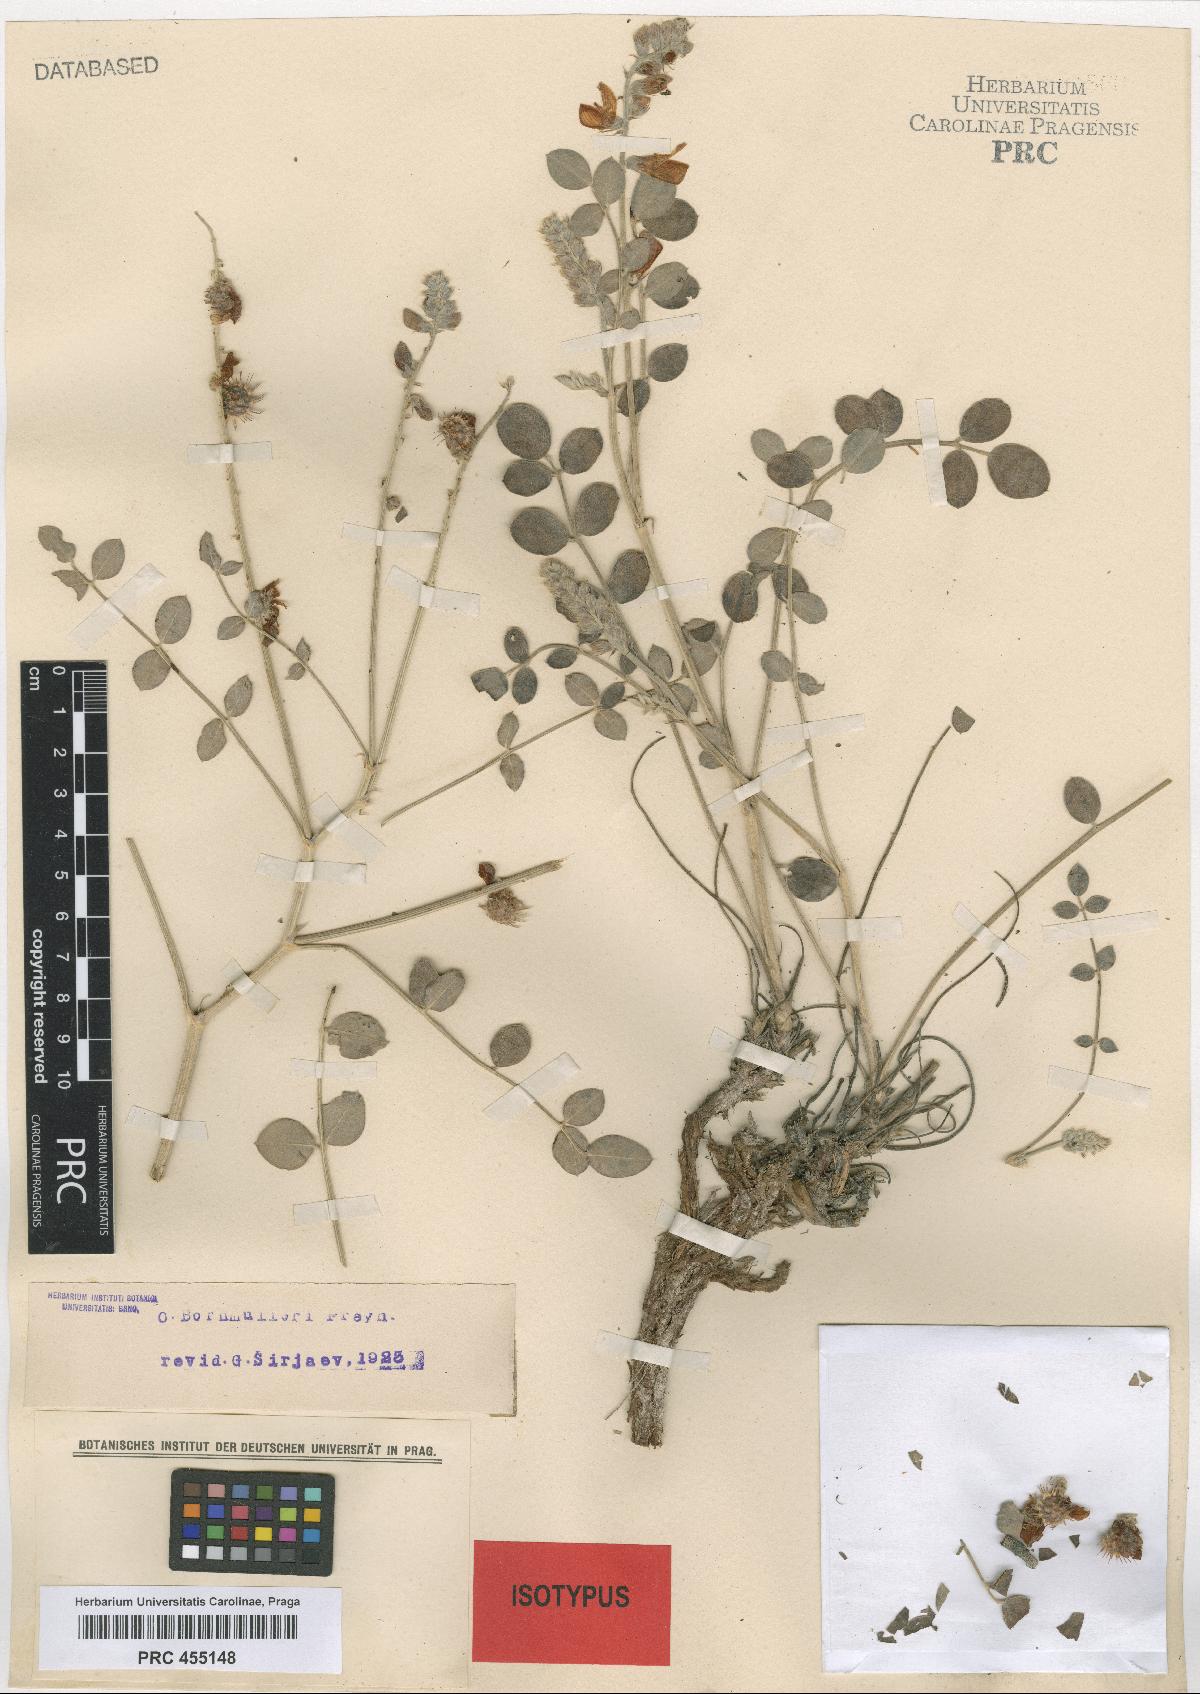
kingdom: Plantae
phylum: Tracheophyta
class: Magnoliopsida
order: Fabales
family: Fabaceae
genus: Onobrychis
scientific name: Onobrychis bornmuelleri
